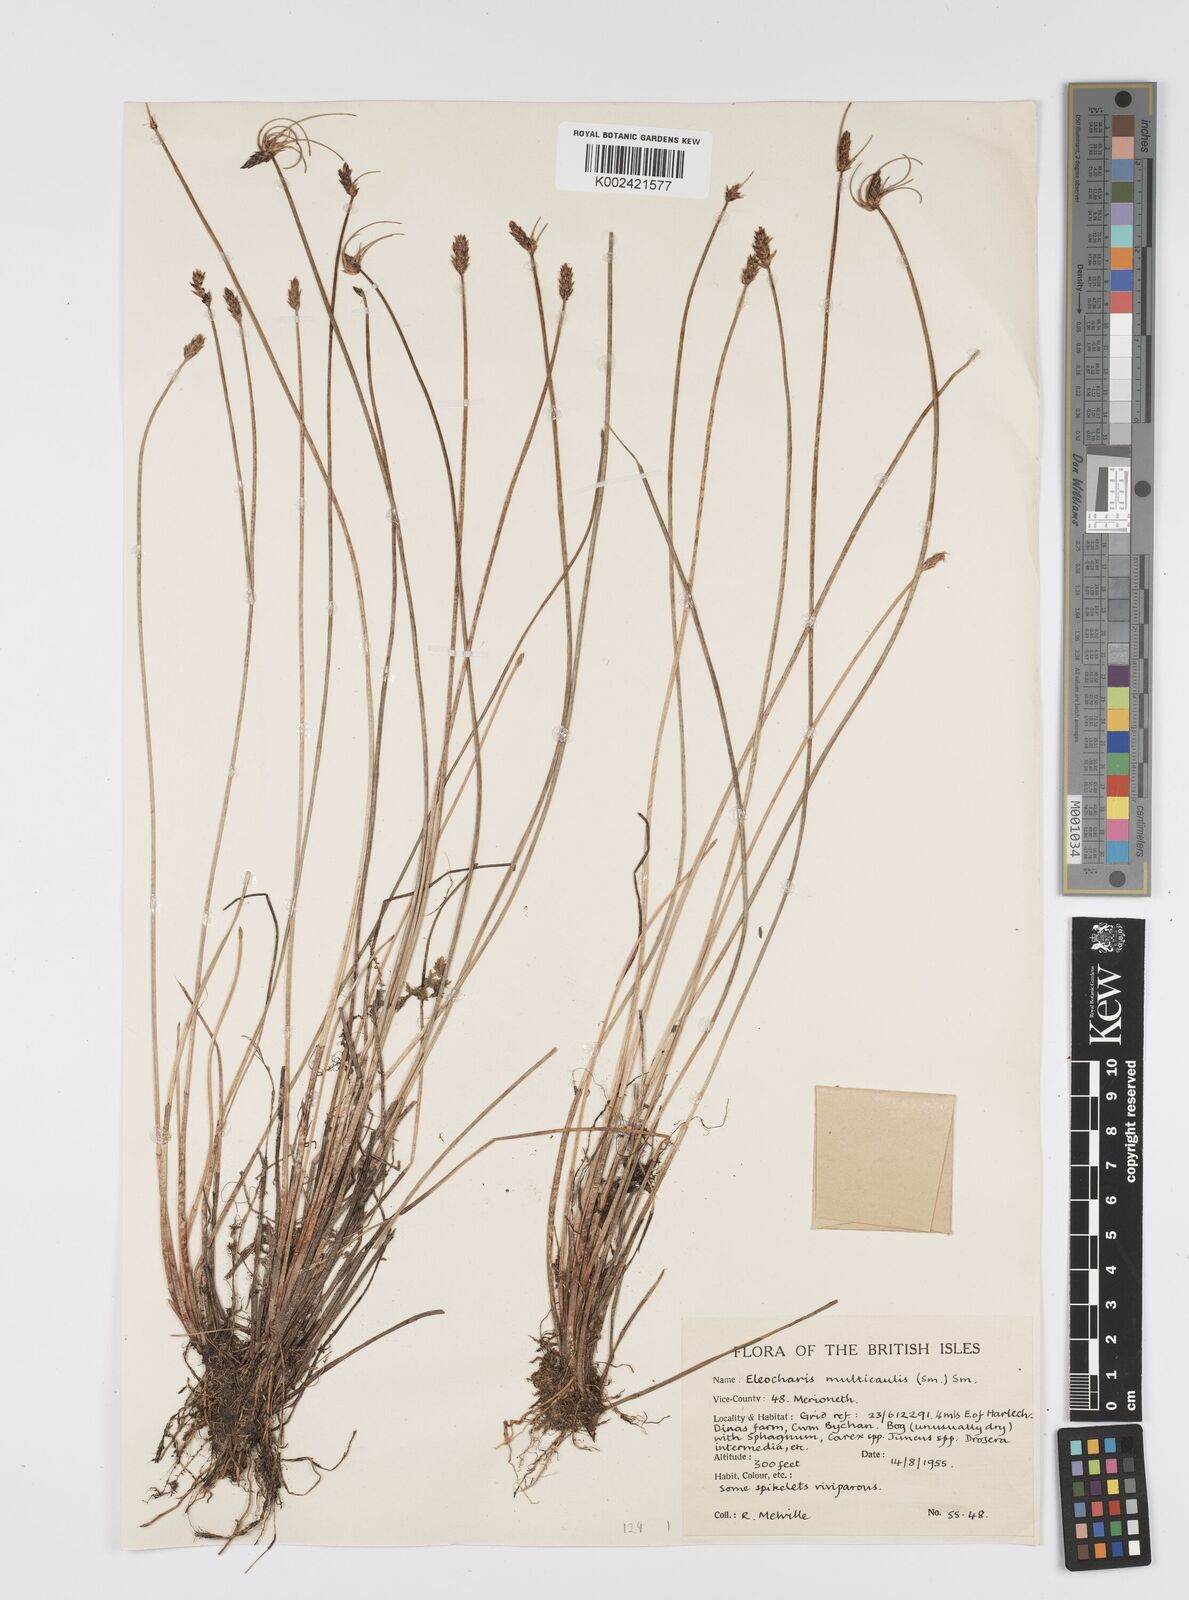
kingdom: Plantae
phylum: Tracheophyta
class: Liliopsida
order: Poales
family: Cyperaceae
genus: Eleocharis
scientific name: Eleocharis multicaulis
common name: Many-stalked spike-rush
